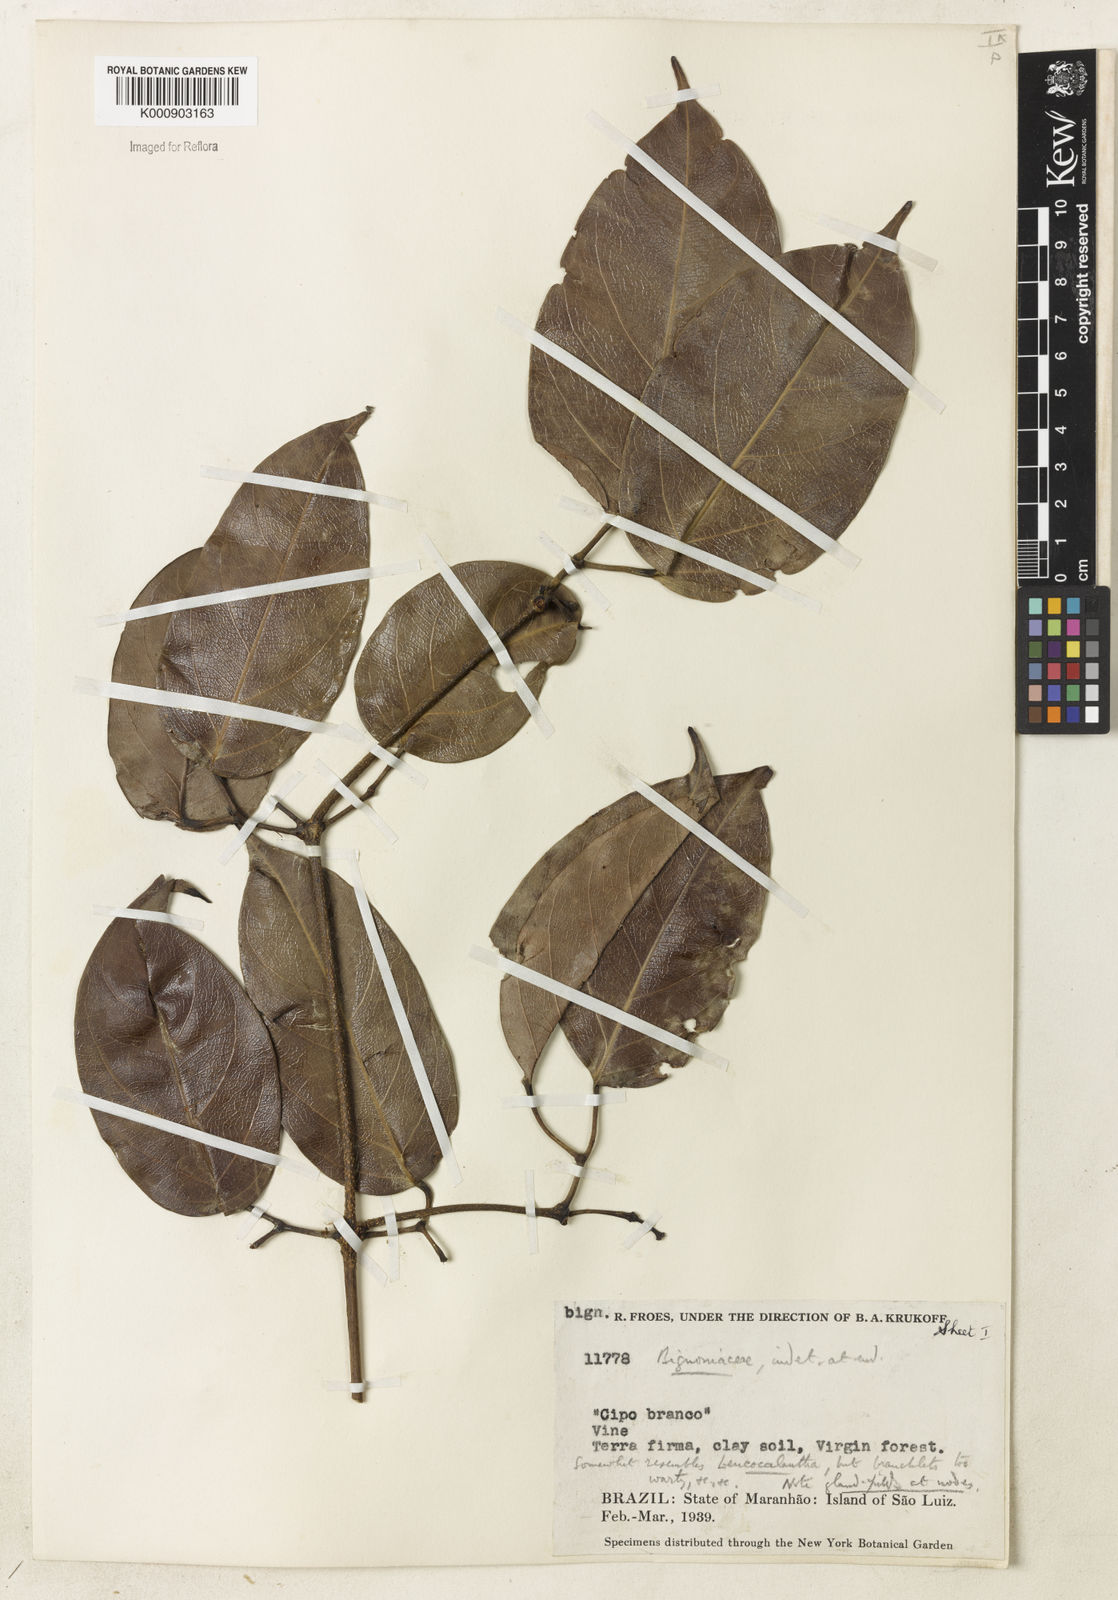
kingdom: Plantae
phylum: Tracheophyta
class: Magnoliopsida
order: Lamiales
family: Bignoniaceae
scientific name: Bignoniaceae
